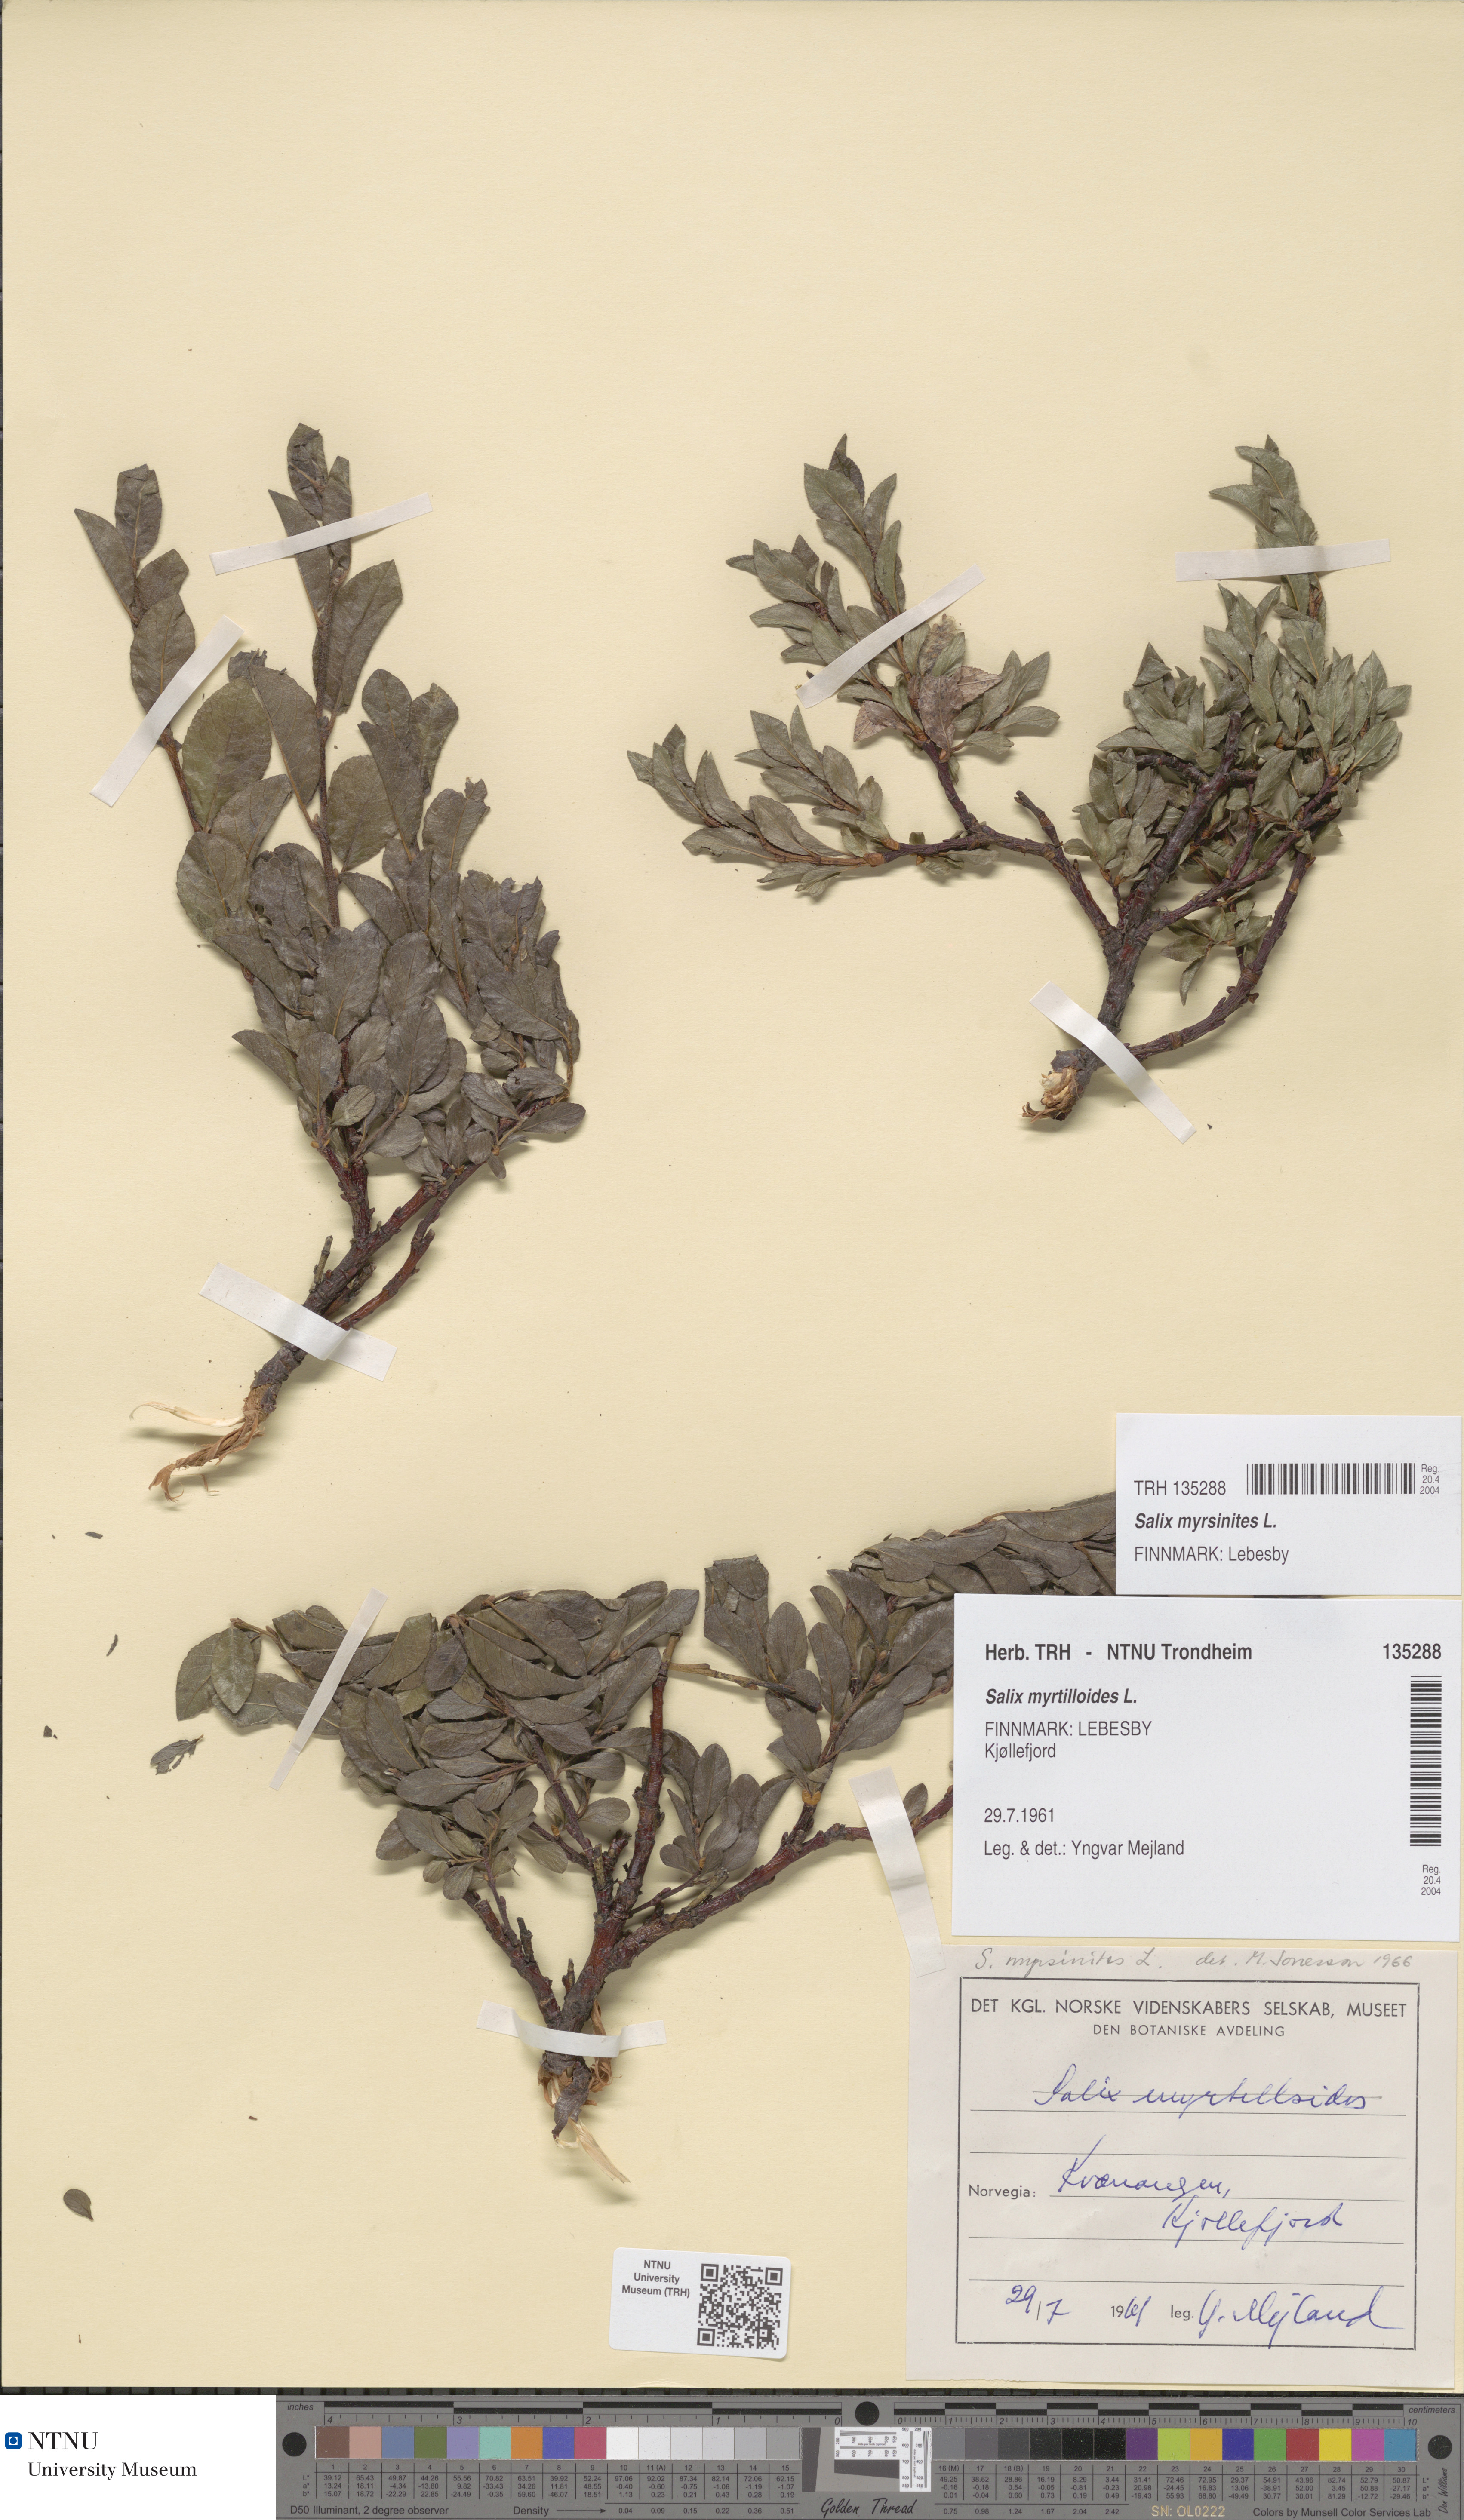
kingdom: Plantae
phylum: Tracheophyta
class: Magnoliopsida
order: Malpighiales
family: Salicaceae
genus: Salix
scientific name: Salix myrsinites
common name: Myrtle willow
